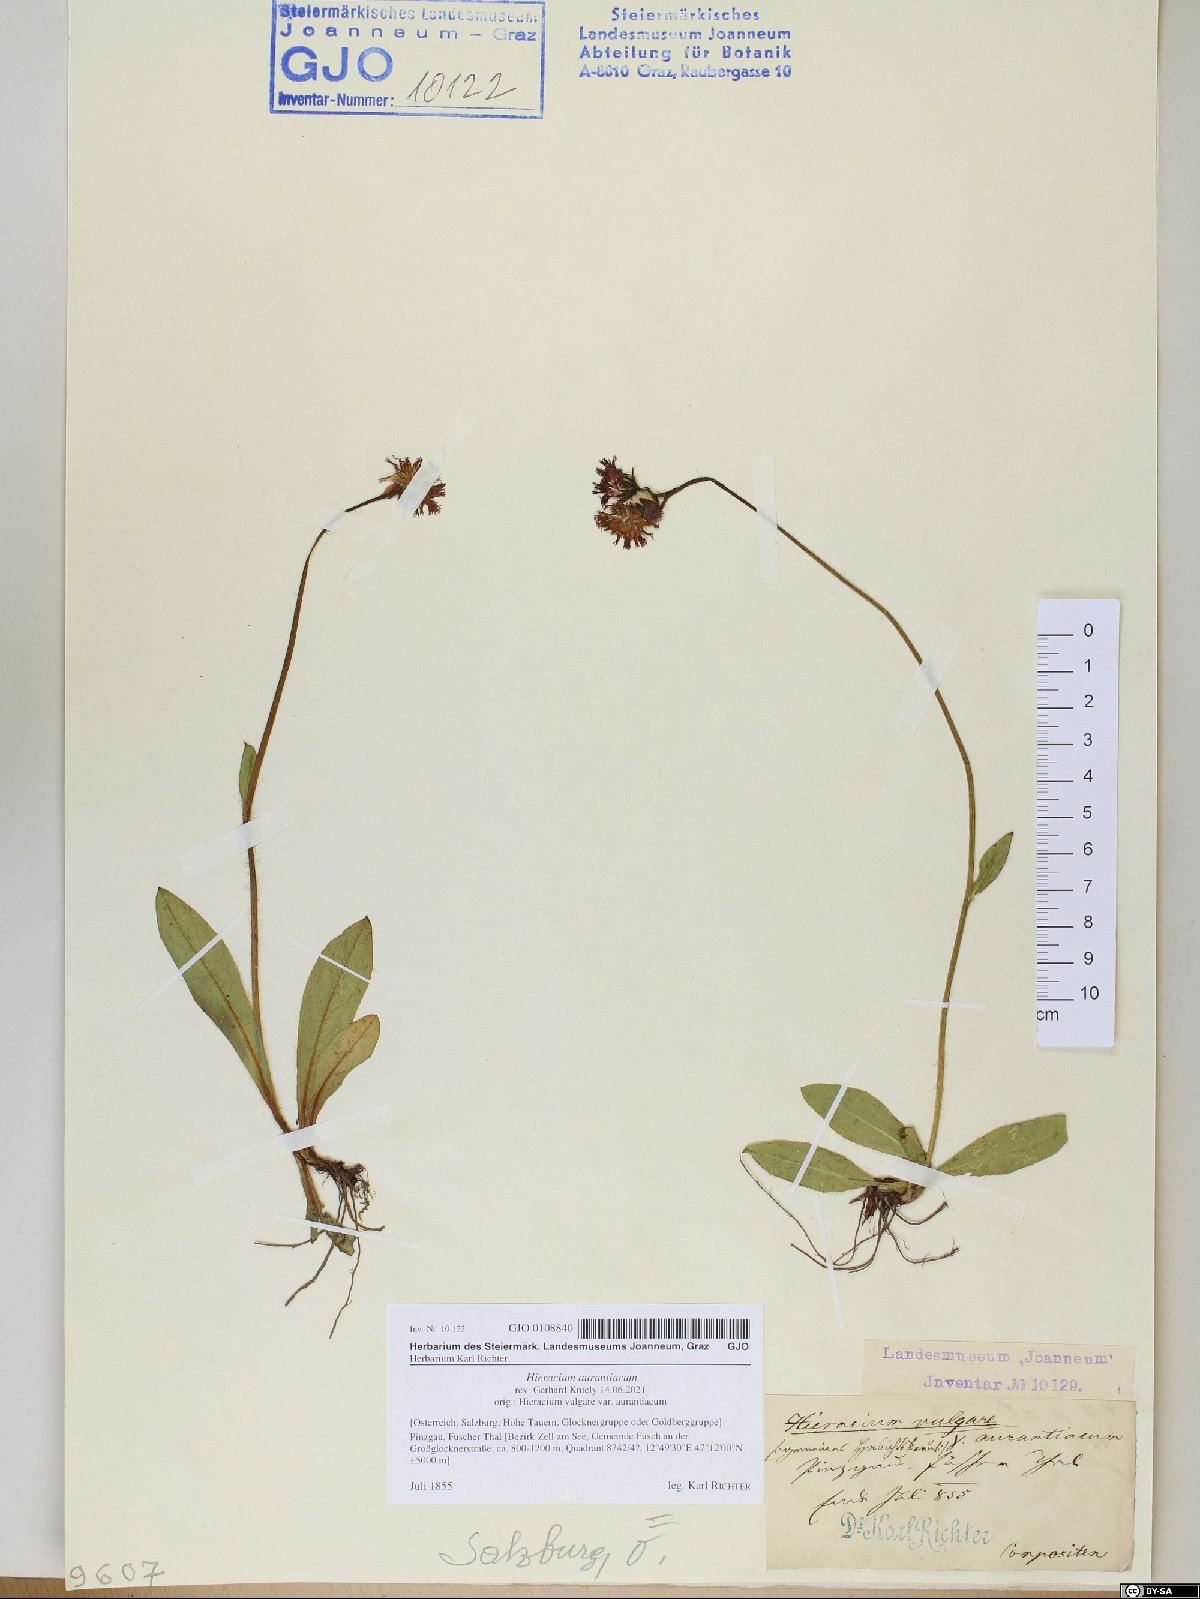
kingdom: Plantae
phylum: Tracheophyta
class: Magnoliopsida
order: Asterales
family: Asteraceae
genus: Pilosella
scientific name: Pilosella aurantiaca
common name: Fox-and-cubs
